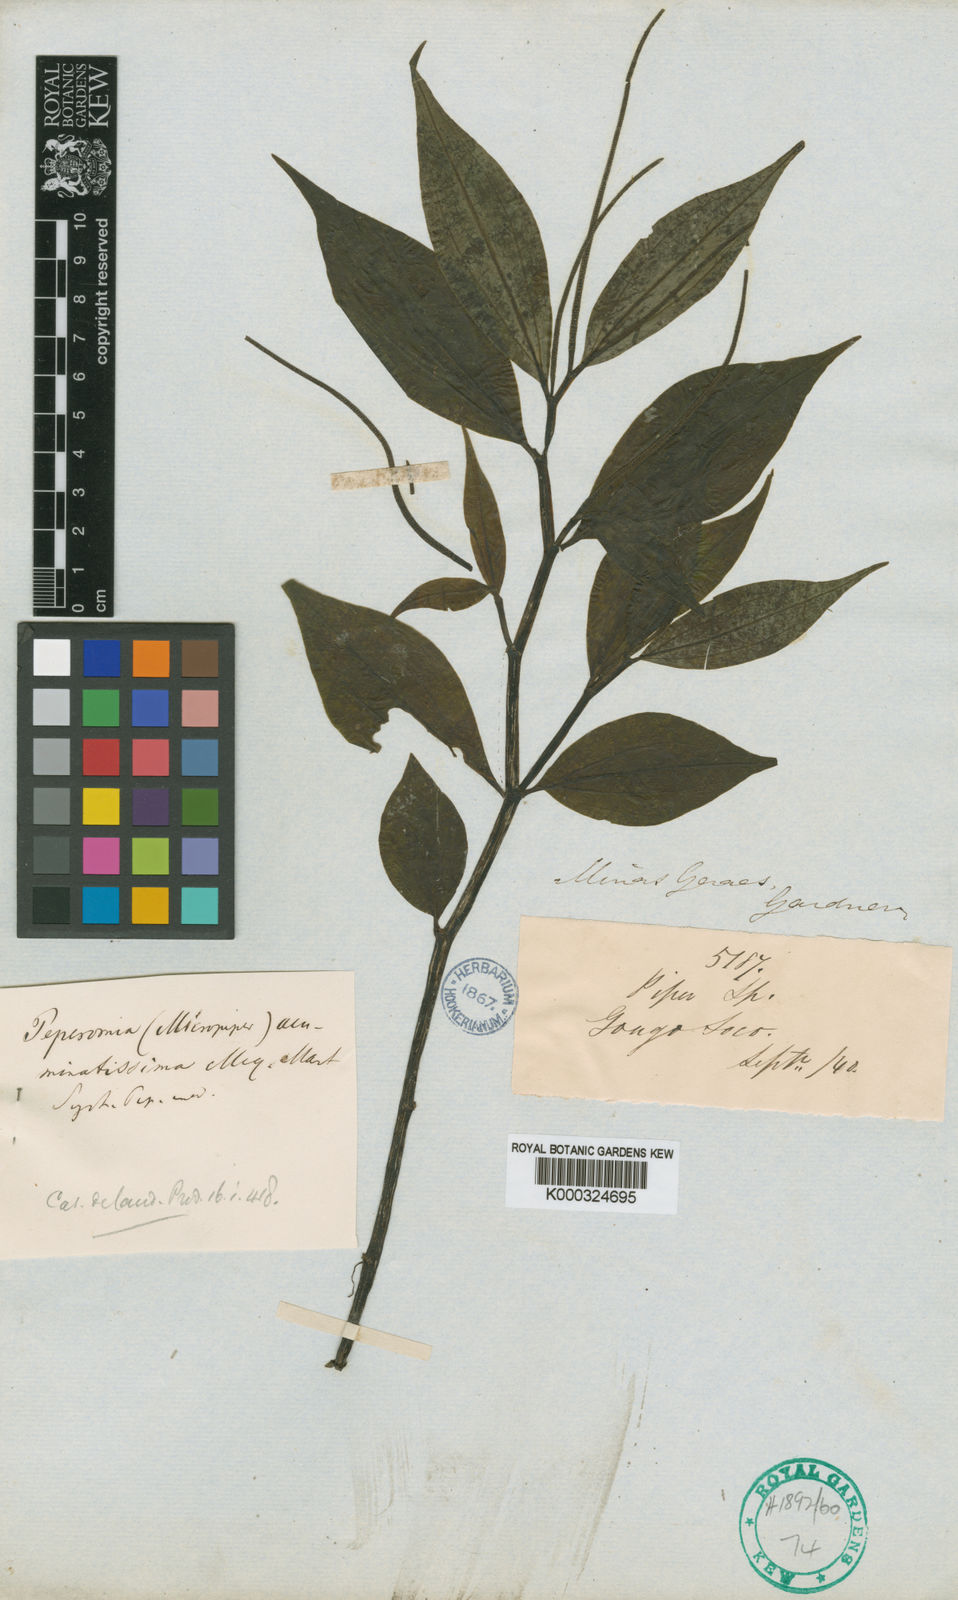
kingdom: Plantae
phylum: Tracheophyta
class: Magnoliopsida
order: Piperales
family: Piperaceae
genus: Peperomia
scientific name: Peperomia acuminatissima
